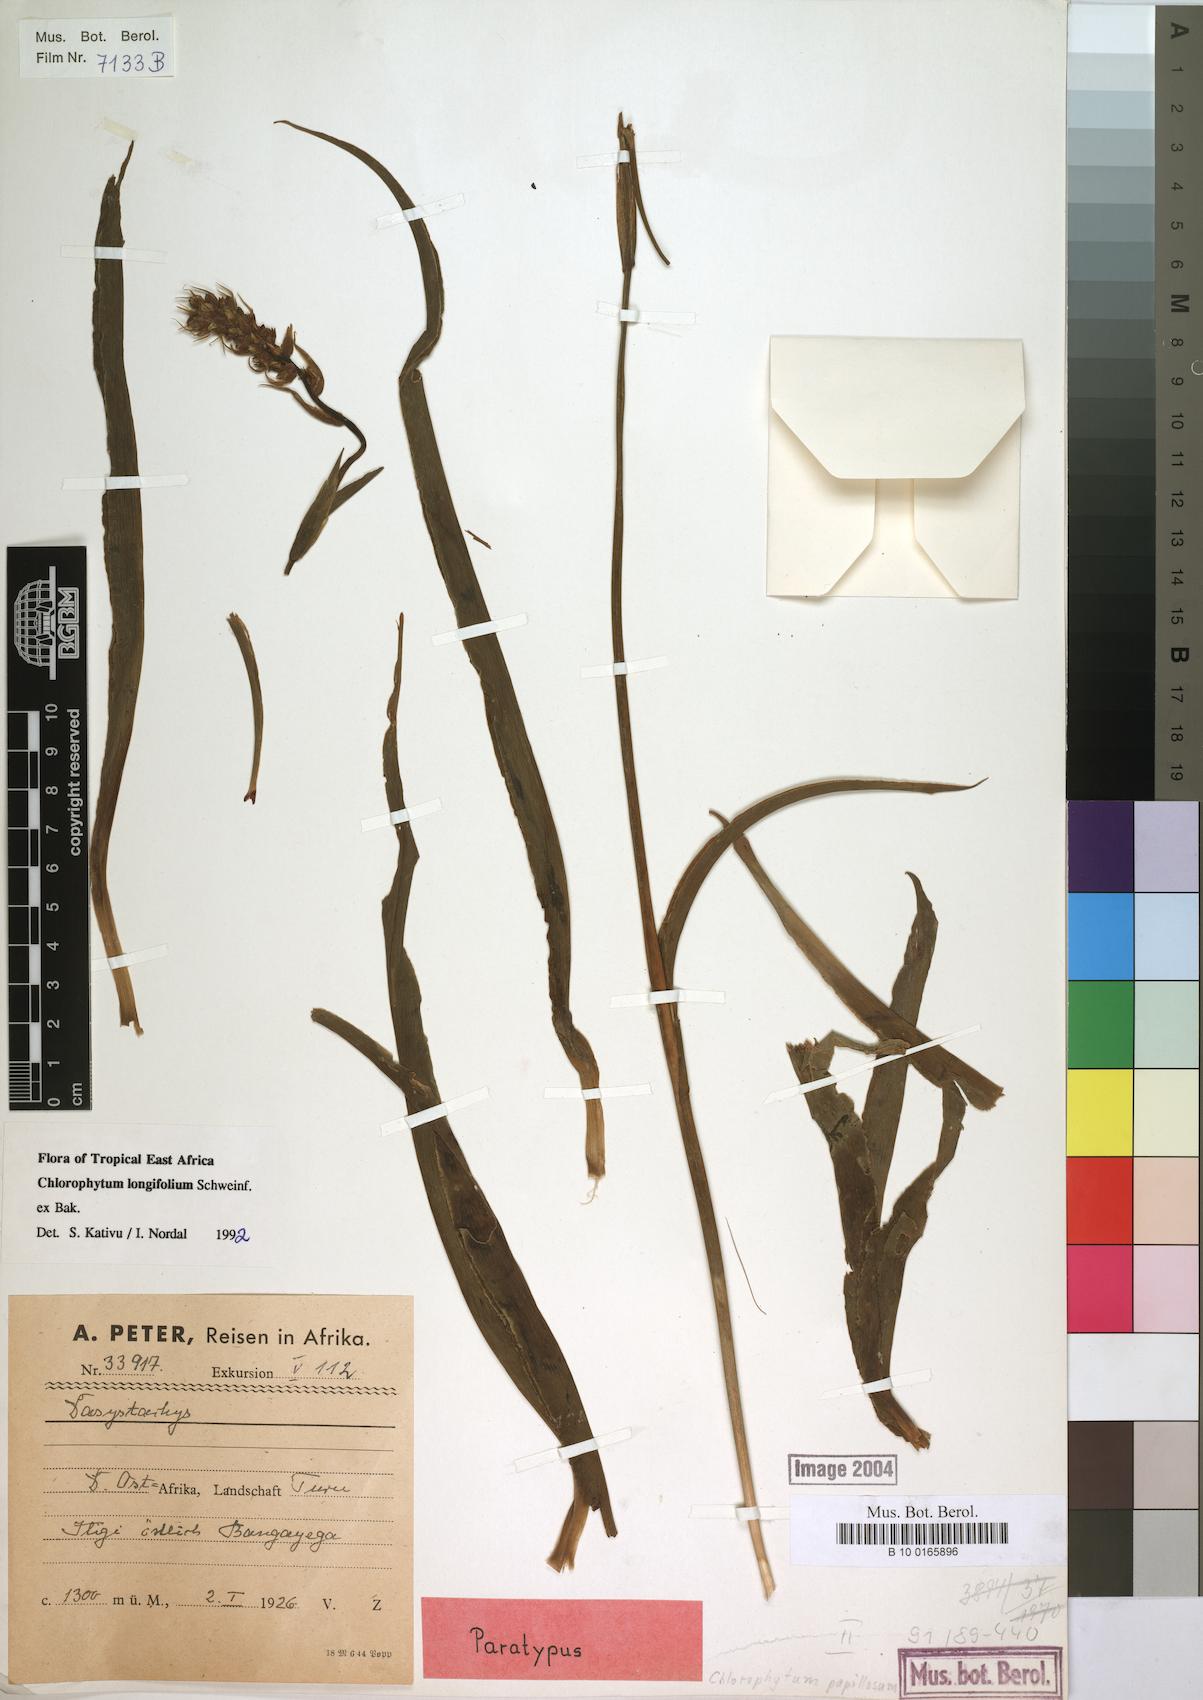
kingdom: Plantae
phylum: Tracheophyta
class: Liliopsida
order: Asparagales
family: Asparagaceae
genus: Chlorophytum
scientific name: Chlorophytum longifolium
